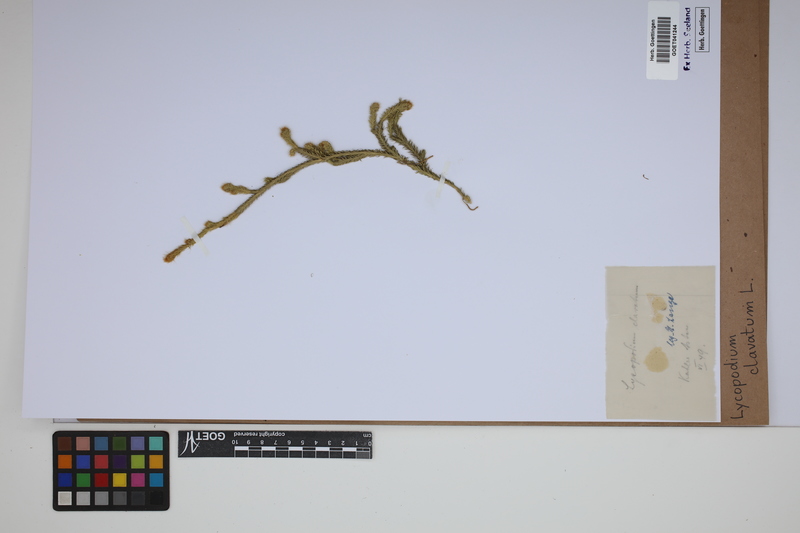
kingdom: Plantae
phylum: Tracheophyta
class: Lycopodiopsida
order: Lycopodiales
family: Lycopodiaceae
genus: Lycopodium
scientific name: Lycopodium clavatum
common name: Stag's-horn clubmoss
